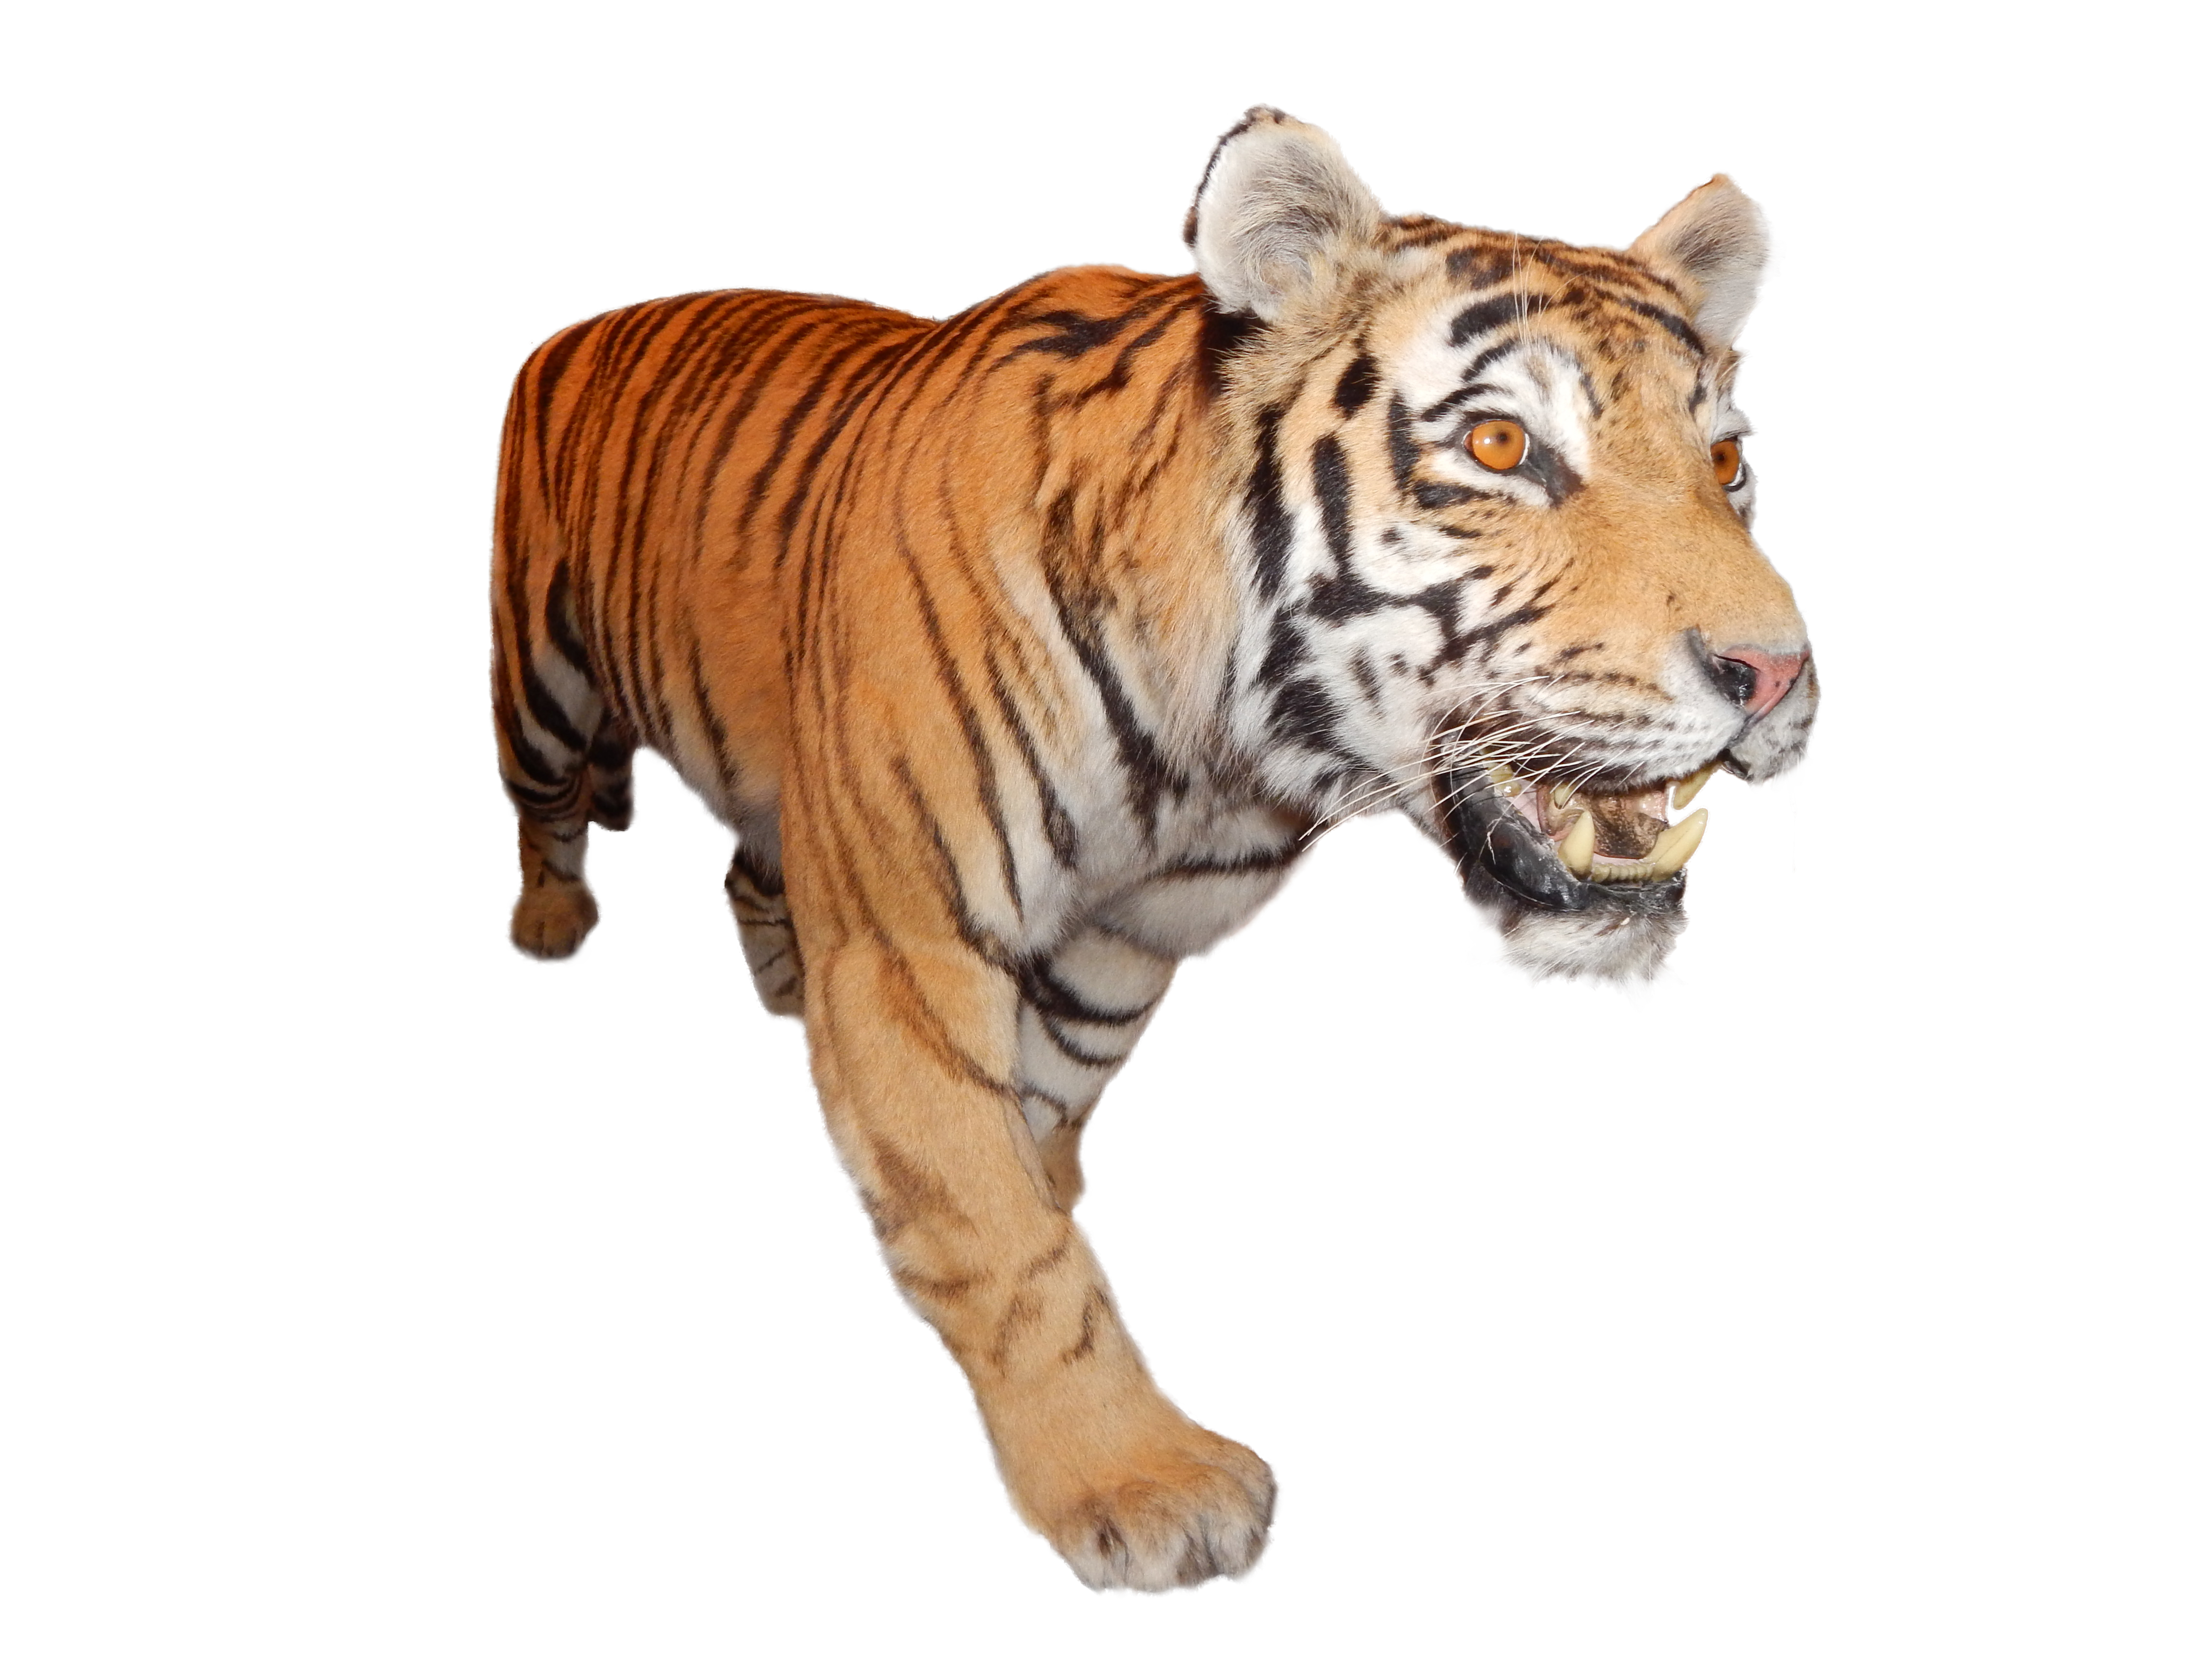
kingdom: Animalia
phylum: Chordata
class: Mammalia
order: Carnivora
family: Felidae
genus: Panthera
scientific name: Panthera tigris
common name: Tiger
